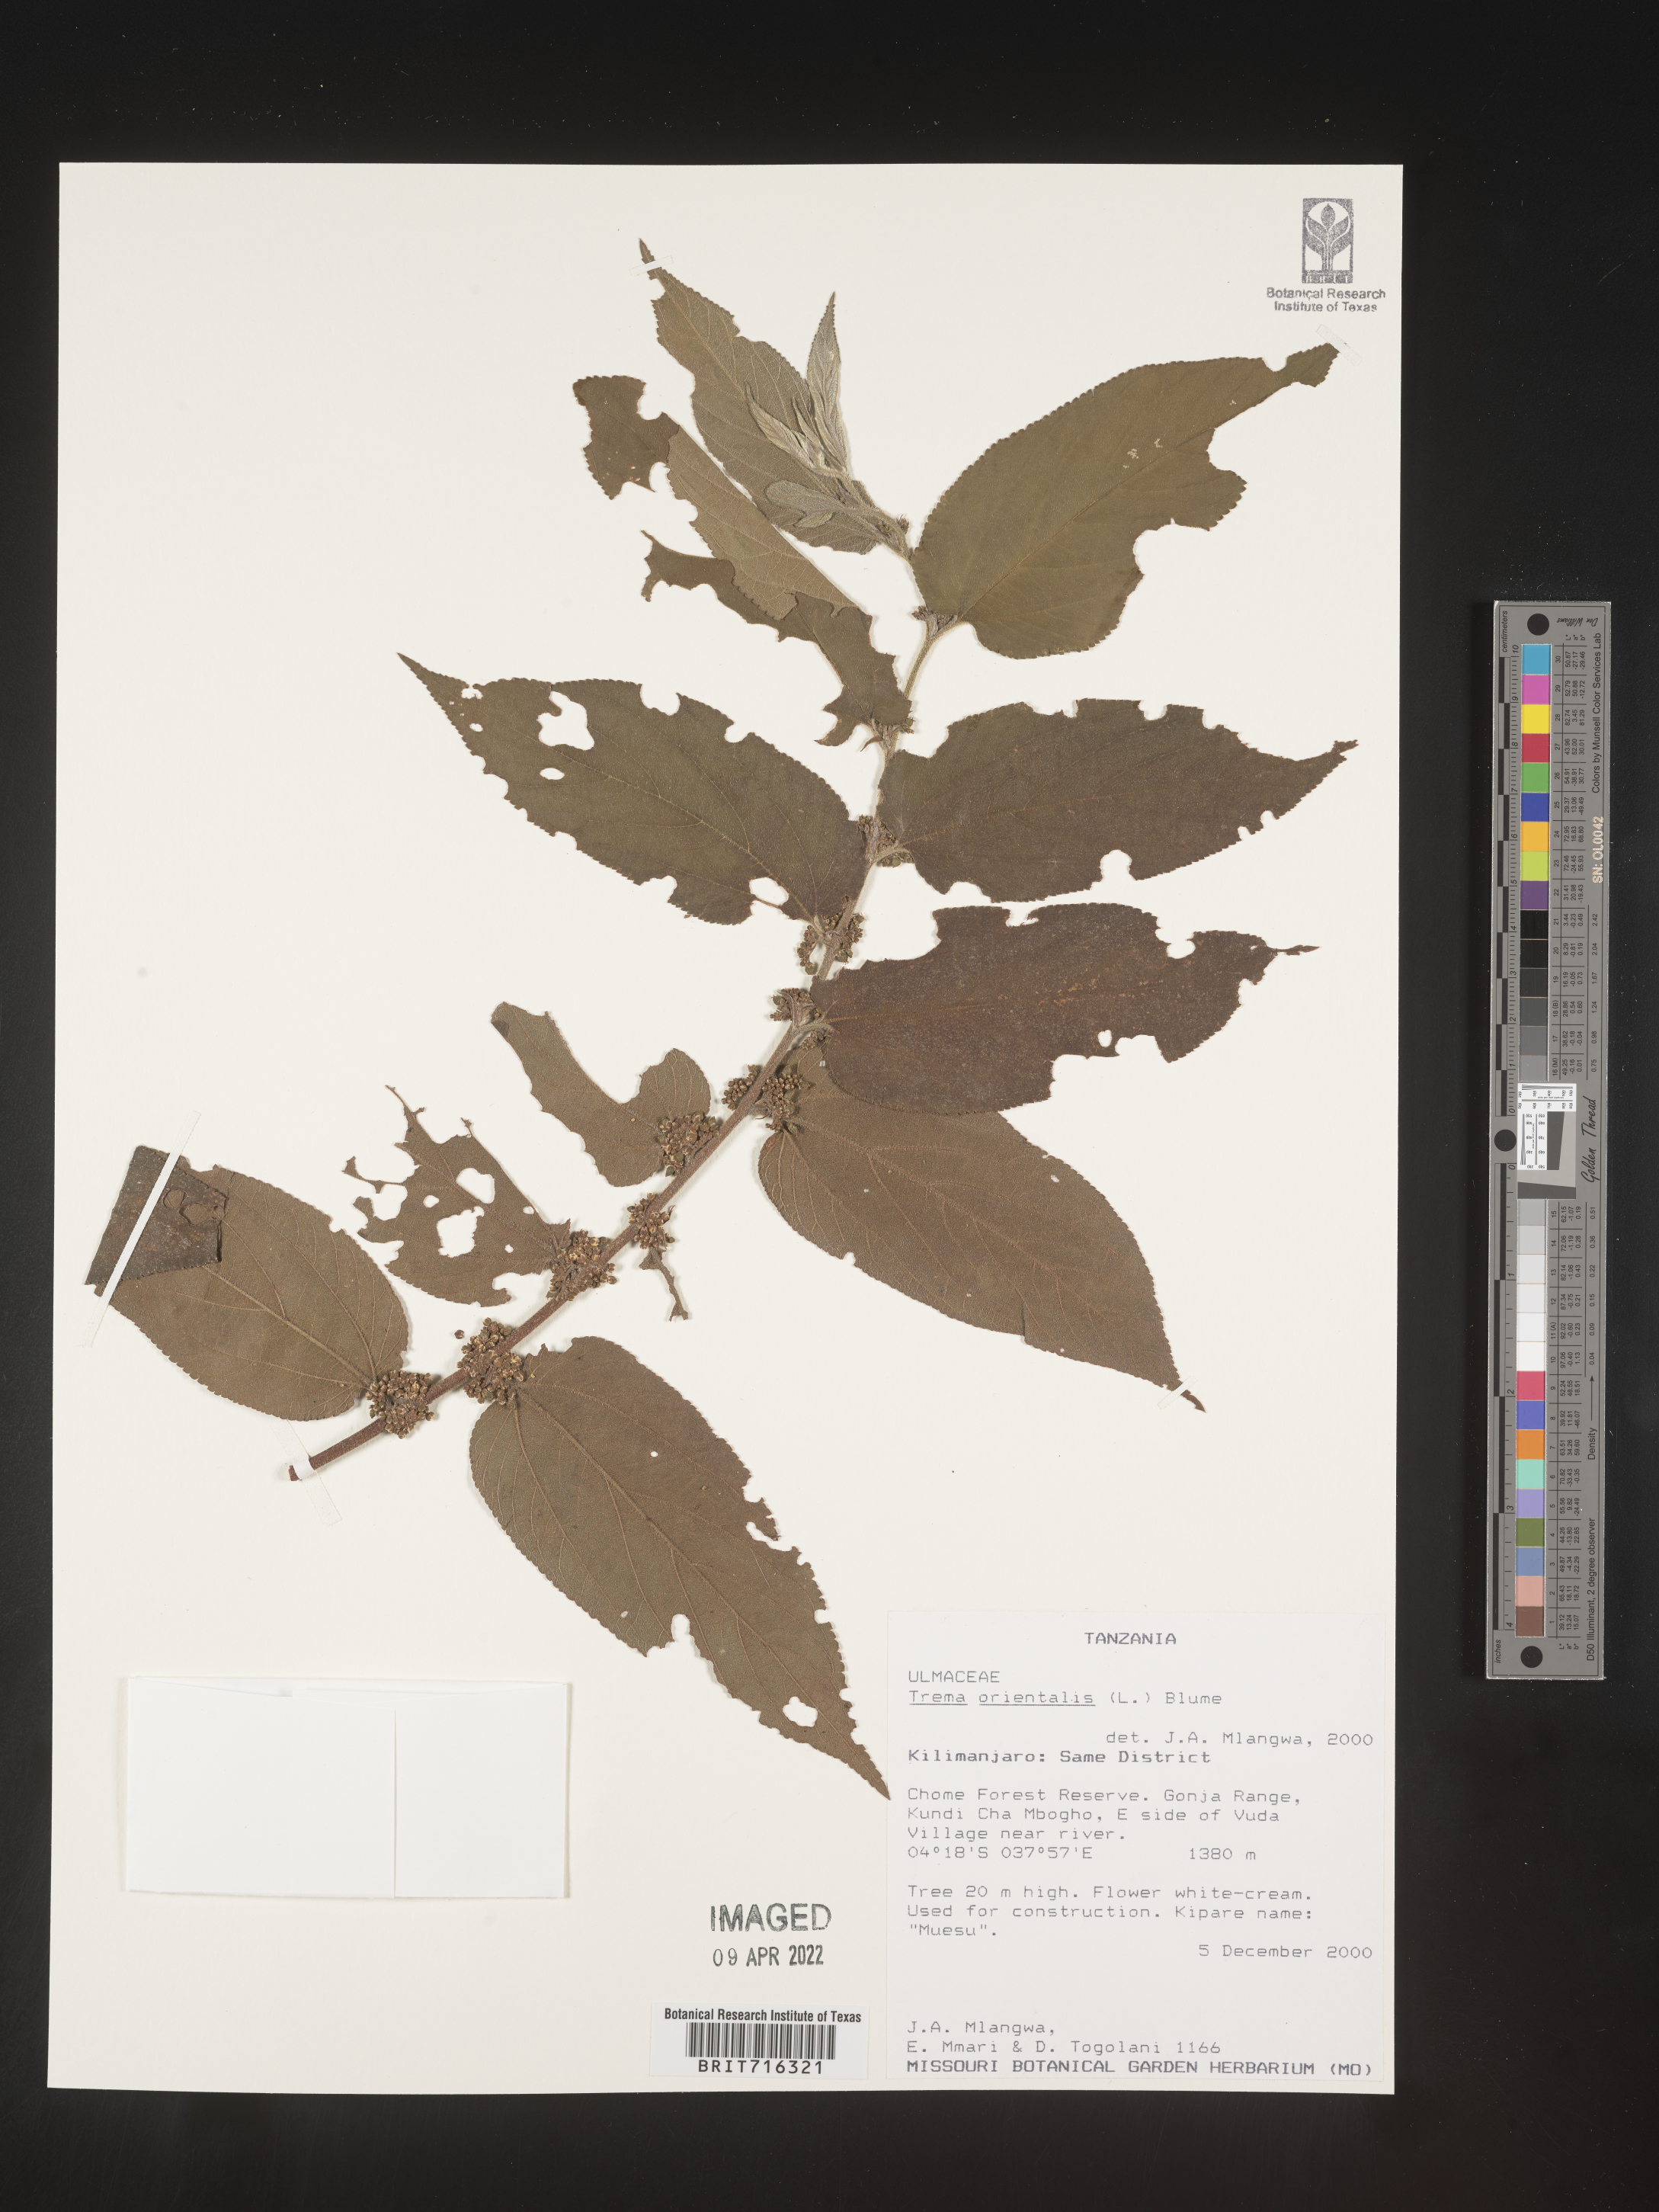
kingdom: Plantae
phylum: Tracheophyta
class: Magnoliopsida
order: Rosales
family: Cannabaceae
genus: Trema
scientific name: Trema
